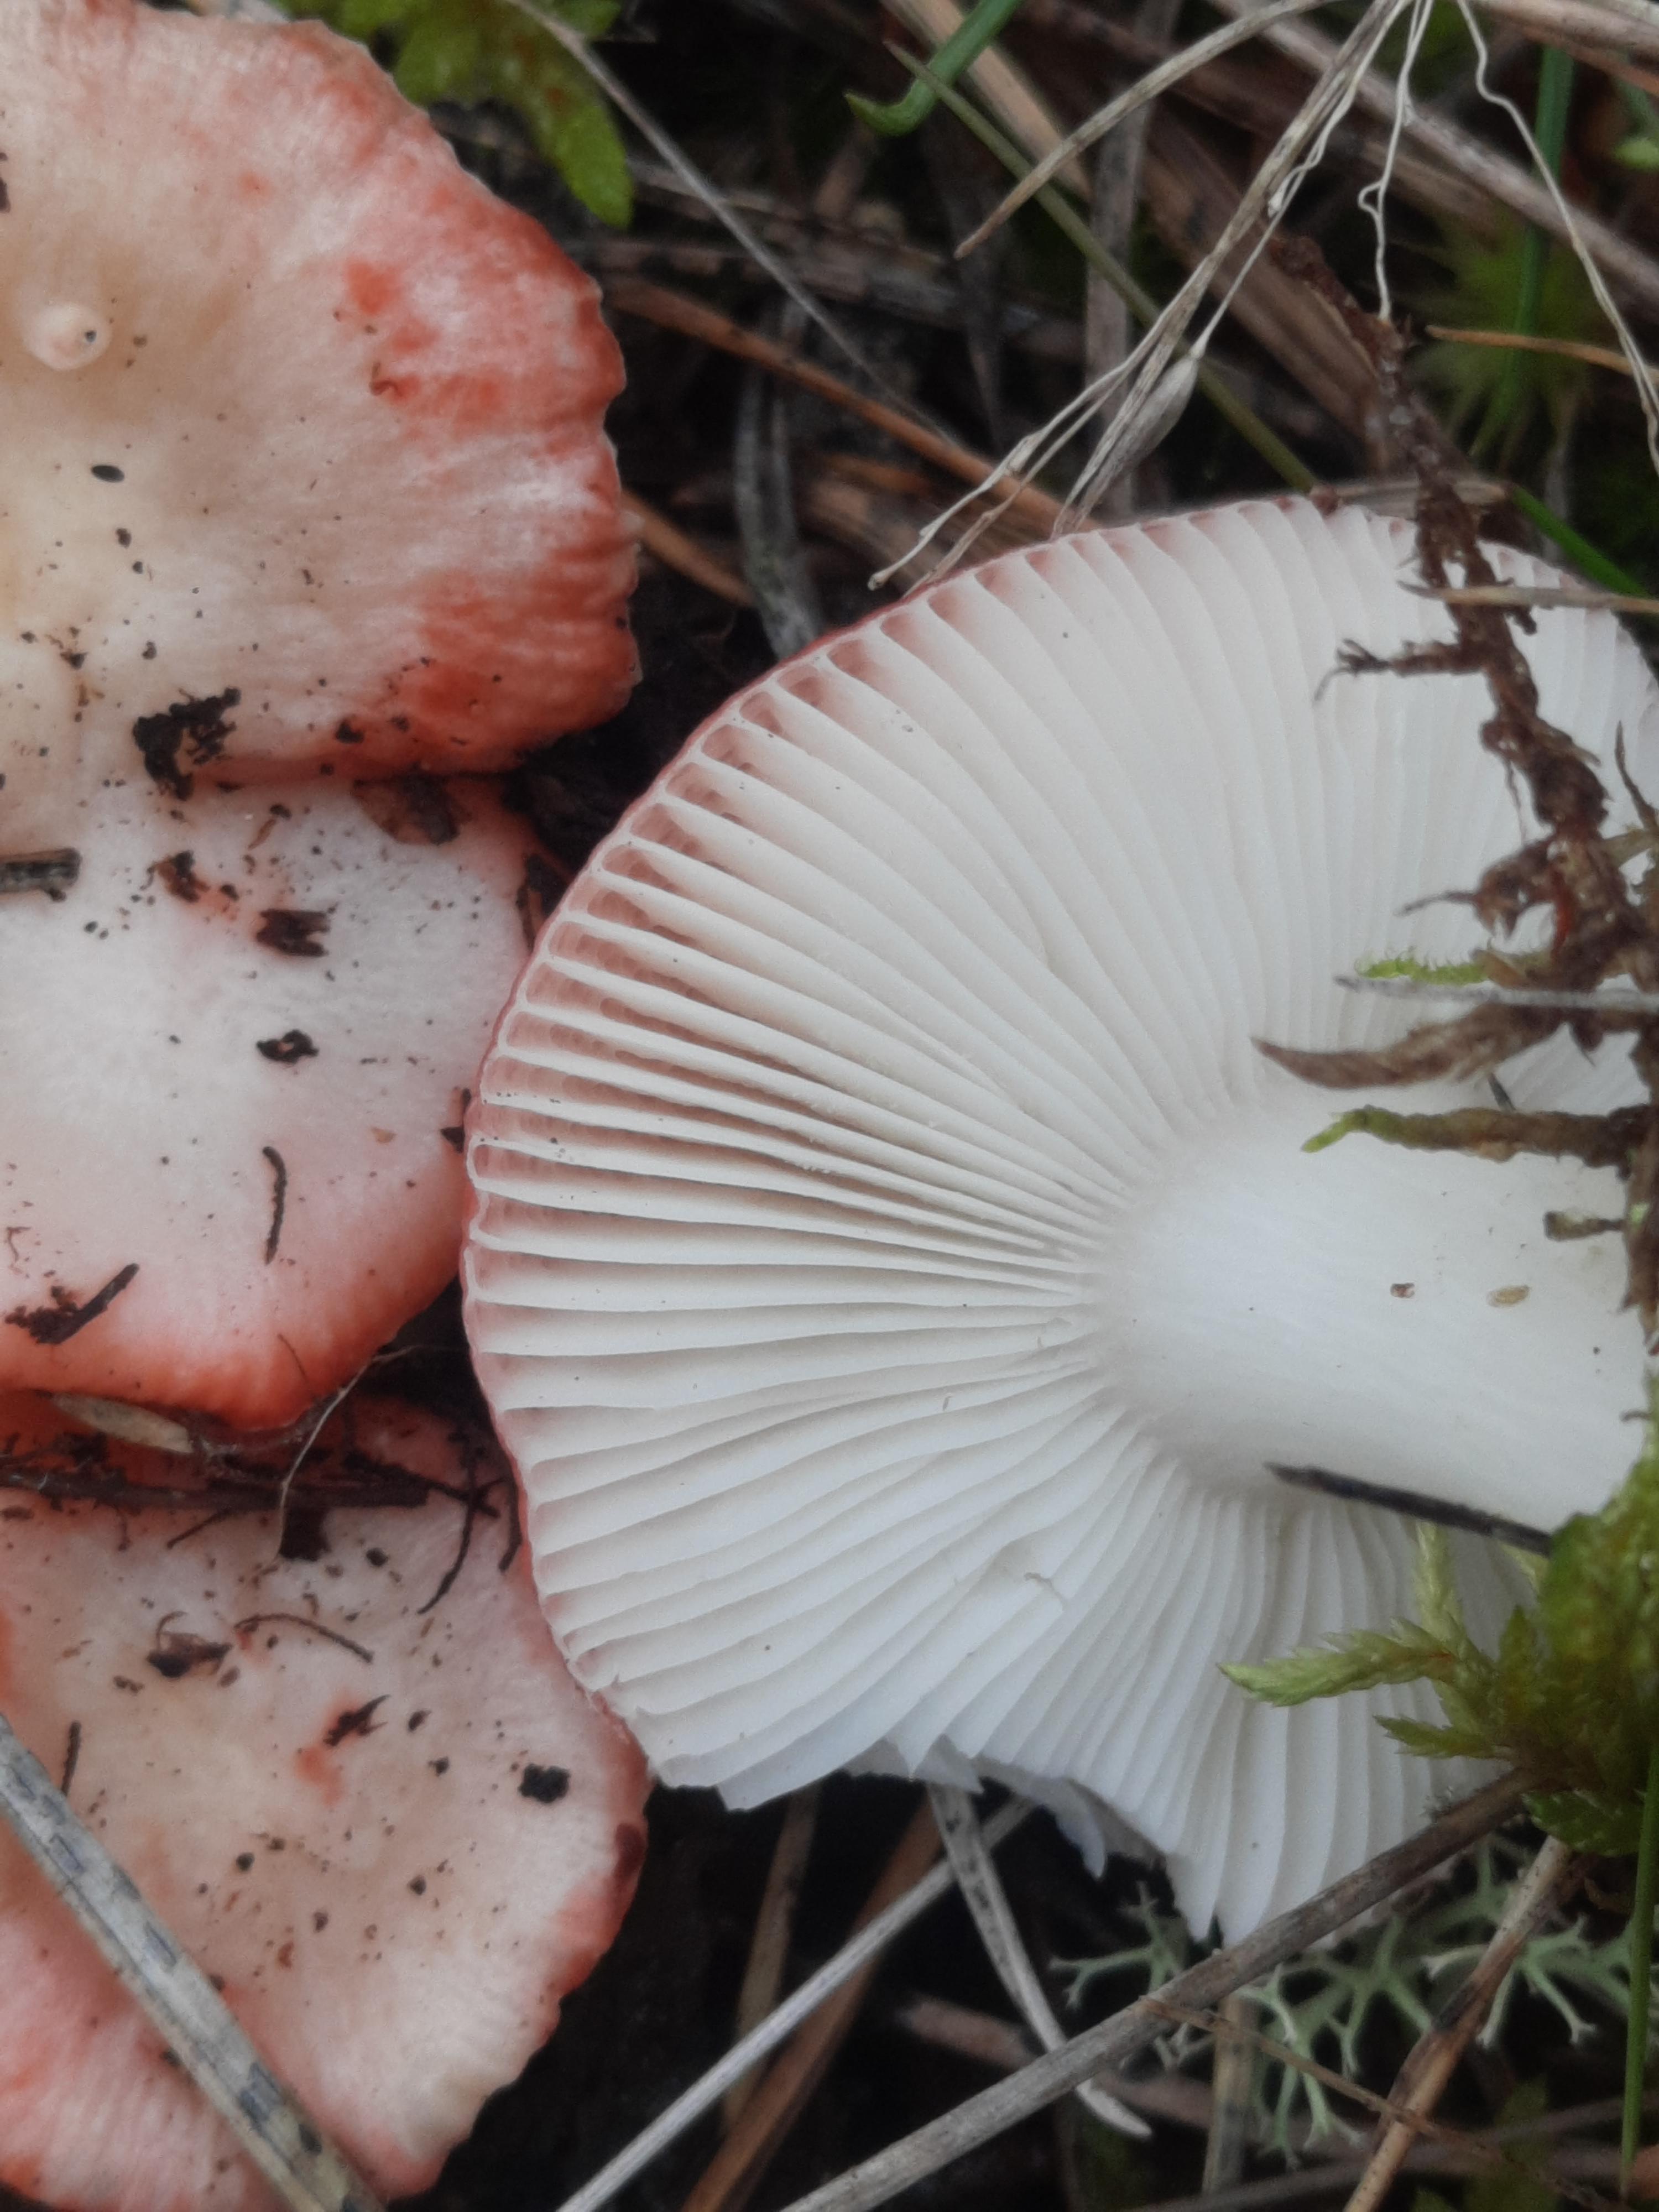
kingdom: Fungi
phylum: Basidiomycota
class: Agaricomycetes
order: Russulales
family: Russulaceae
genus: Russula
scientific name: Russula
